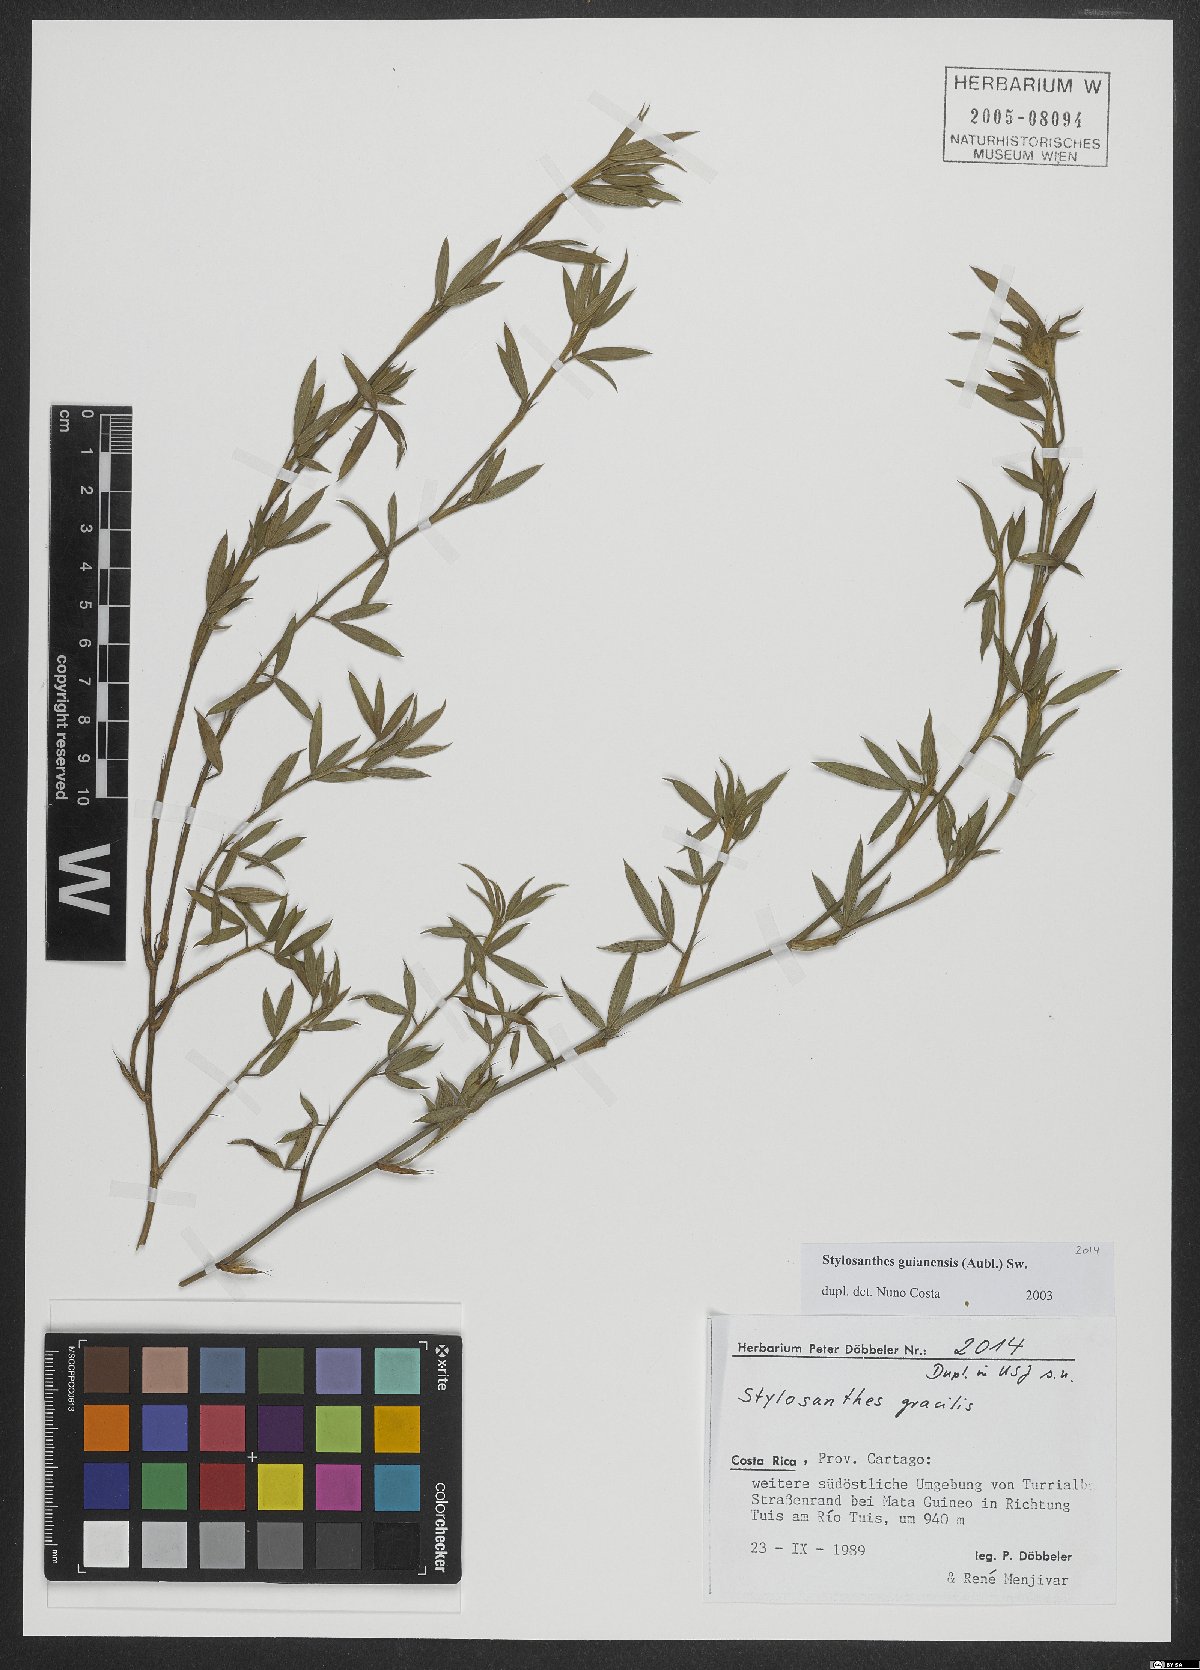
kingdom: Plantae
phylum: Tracheophyta
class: Magnoliopsida
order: Fabales
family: Fabaceae
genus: Stylosanthes
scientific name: Stylosanthes guianensis
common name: Pencil flower
